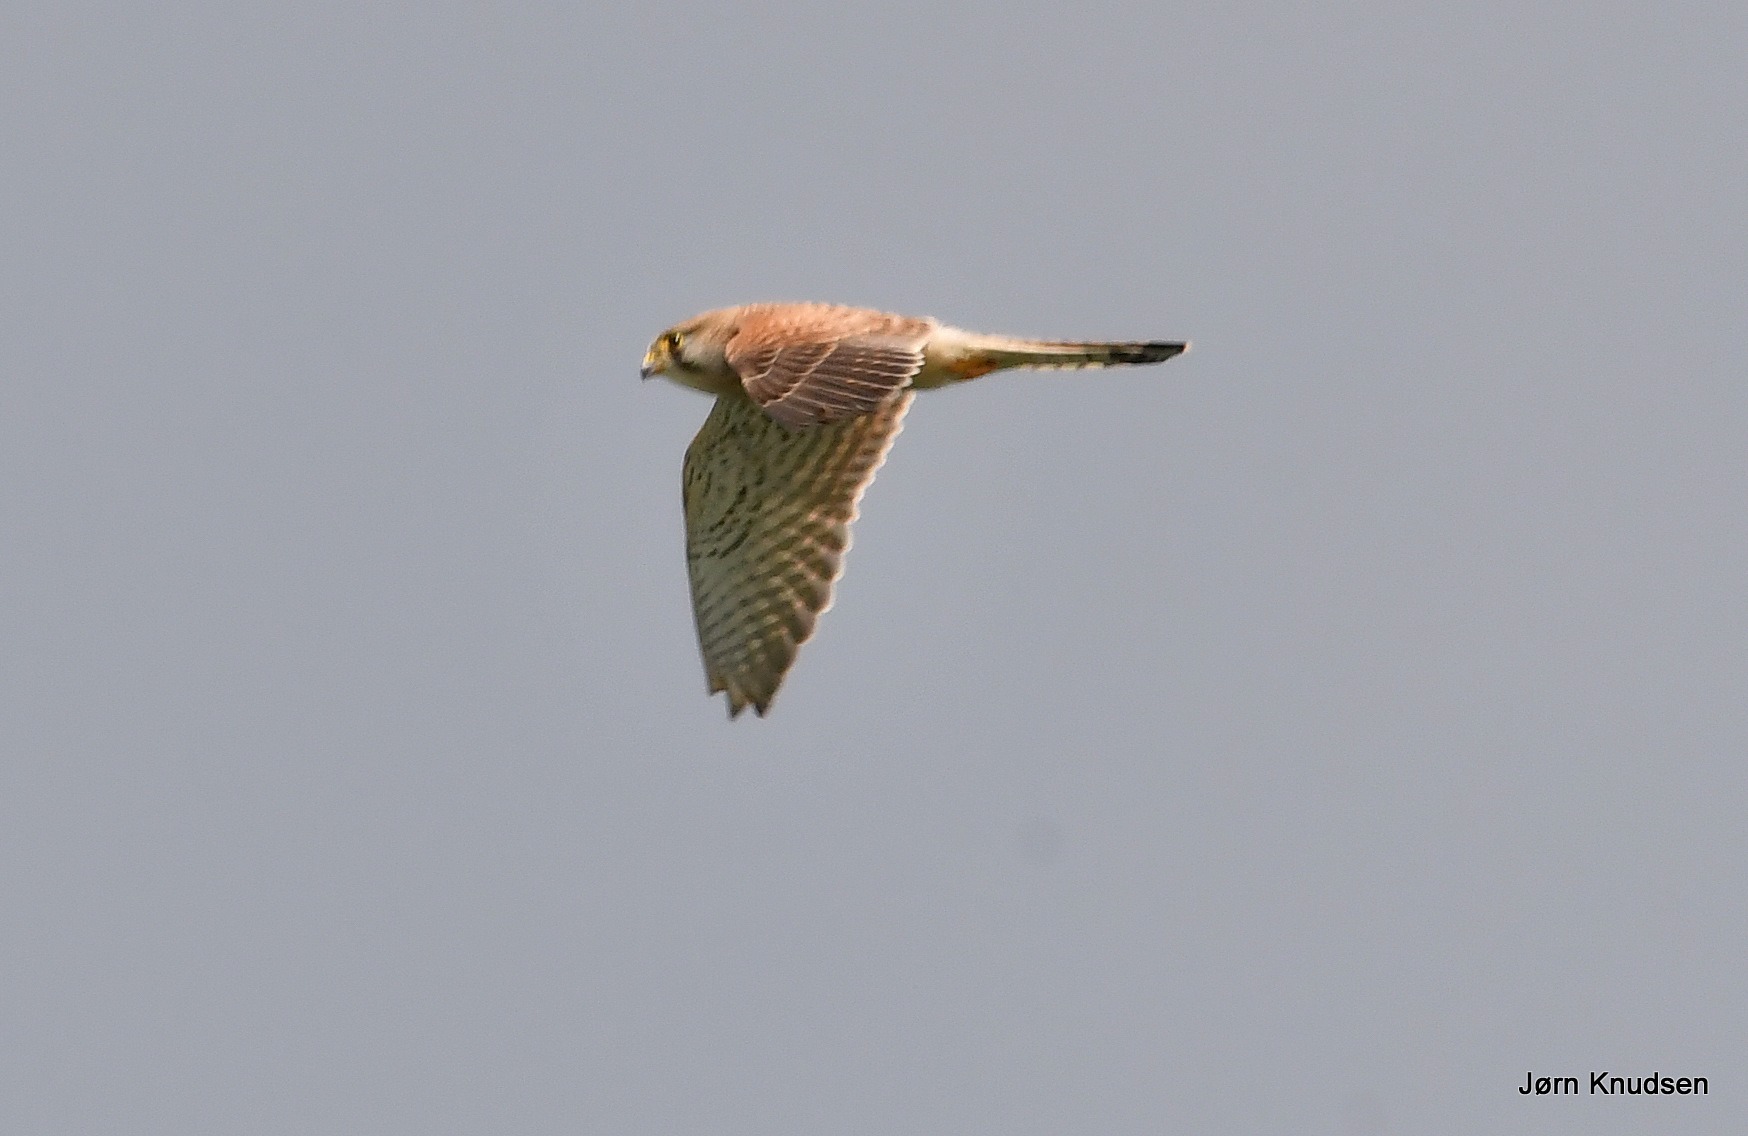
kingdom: Animalia
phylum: Chordata
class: Aves
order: Falconiformes
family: Falconidae
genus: Falco
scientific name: Falco tinnunculus
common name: Tårnfalk
